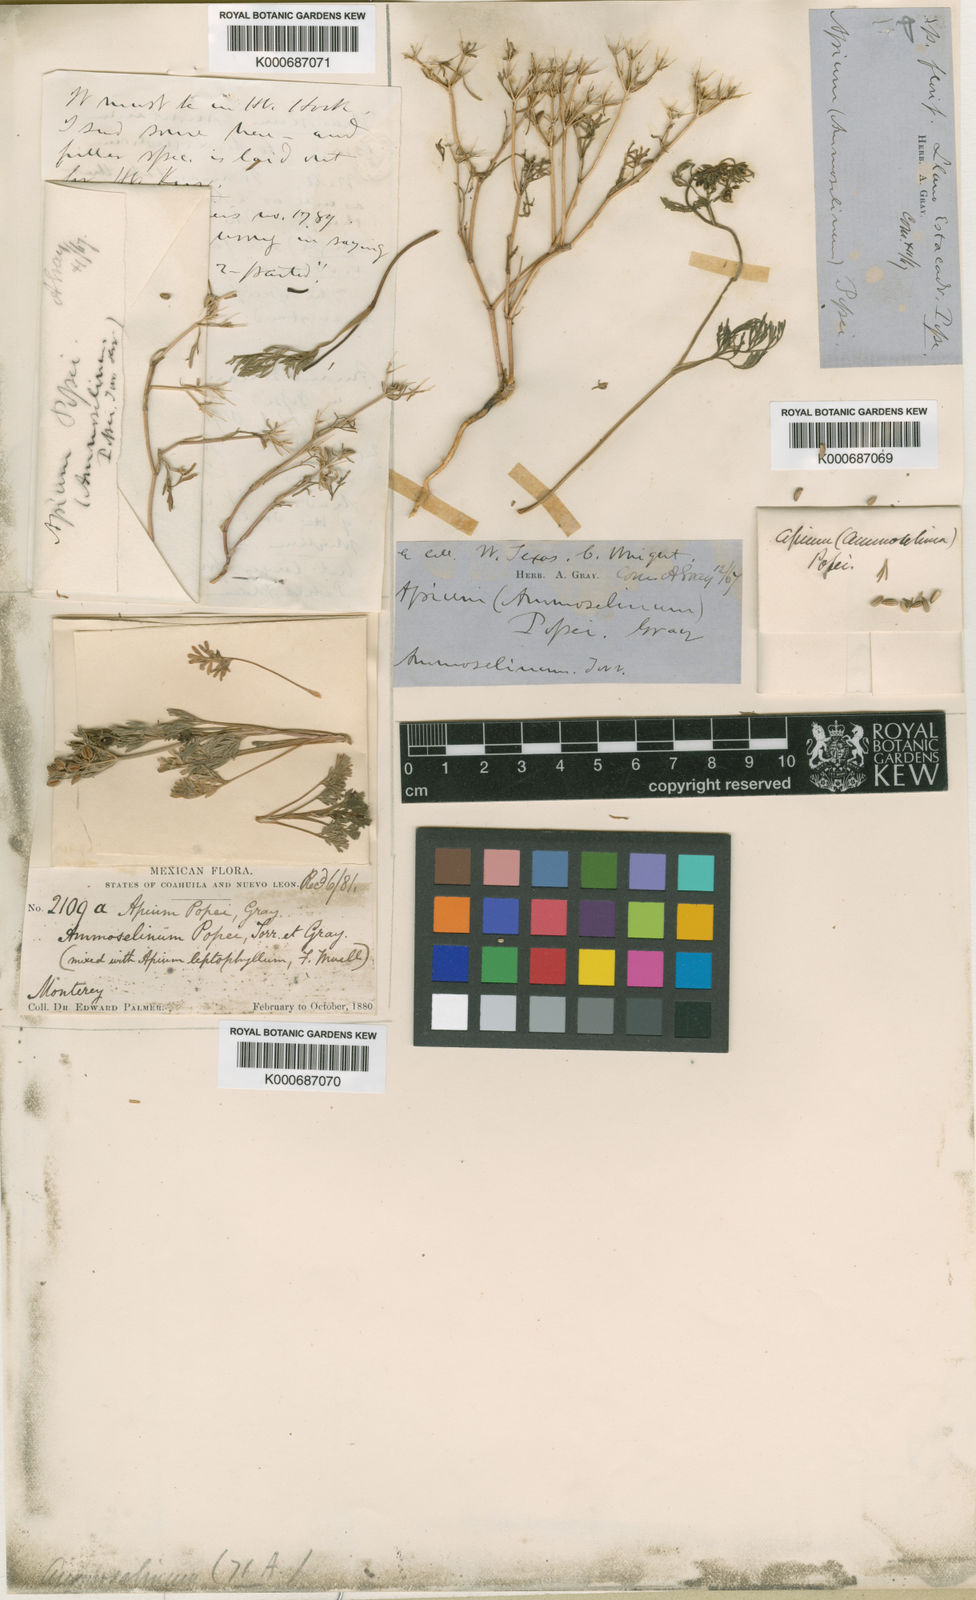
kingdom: Plantae
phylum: Tracheophyta
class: Magnoliopsida
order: Apiales
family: Apiaceae
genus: Ammoselinum
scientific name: Ammoselinum popei
